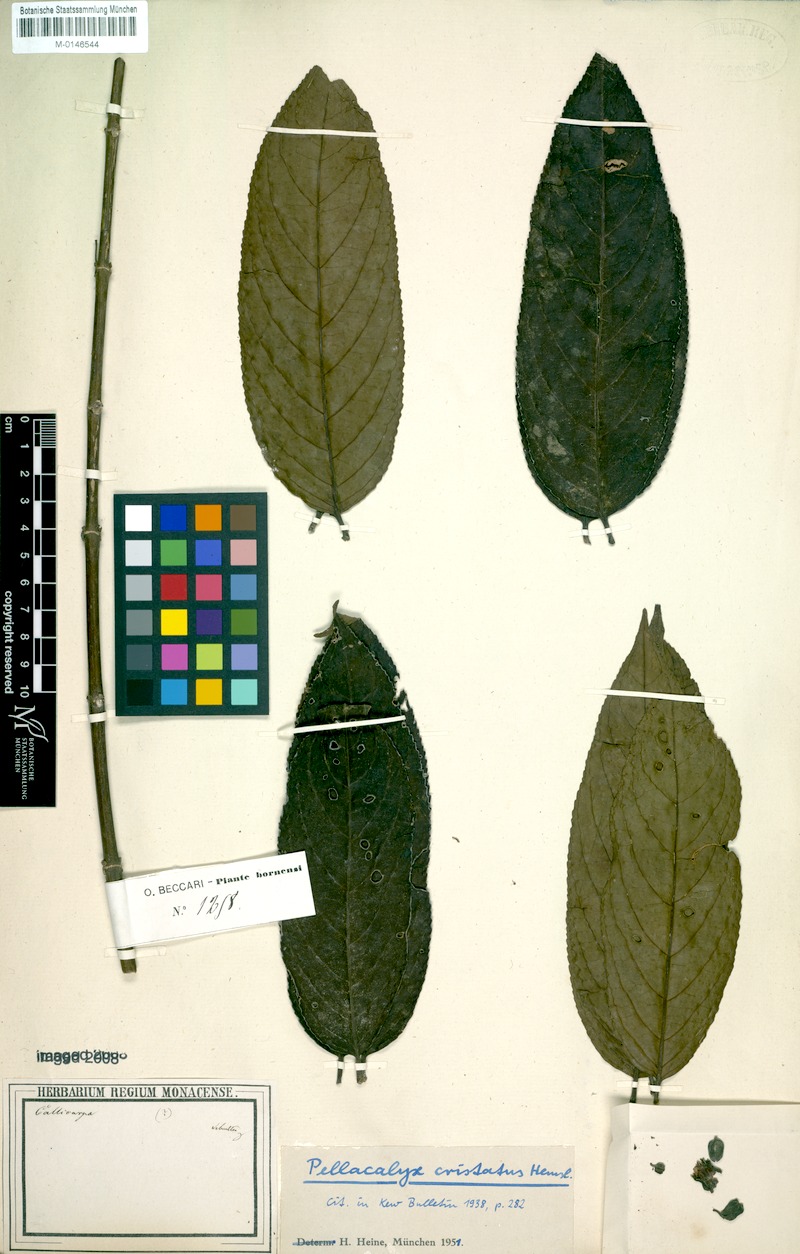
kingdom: Plantae
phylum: Tracheophyta
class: Magnoliopsida
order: Malpighiales
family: Rhizophoraceae
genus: Pellacalyx
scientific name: Pellacalyx cristatus
